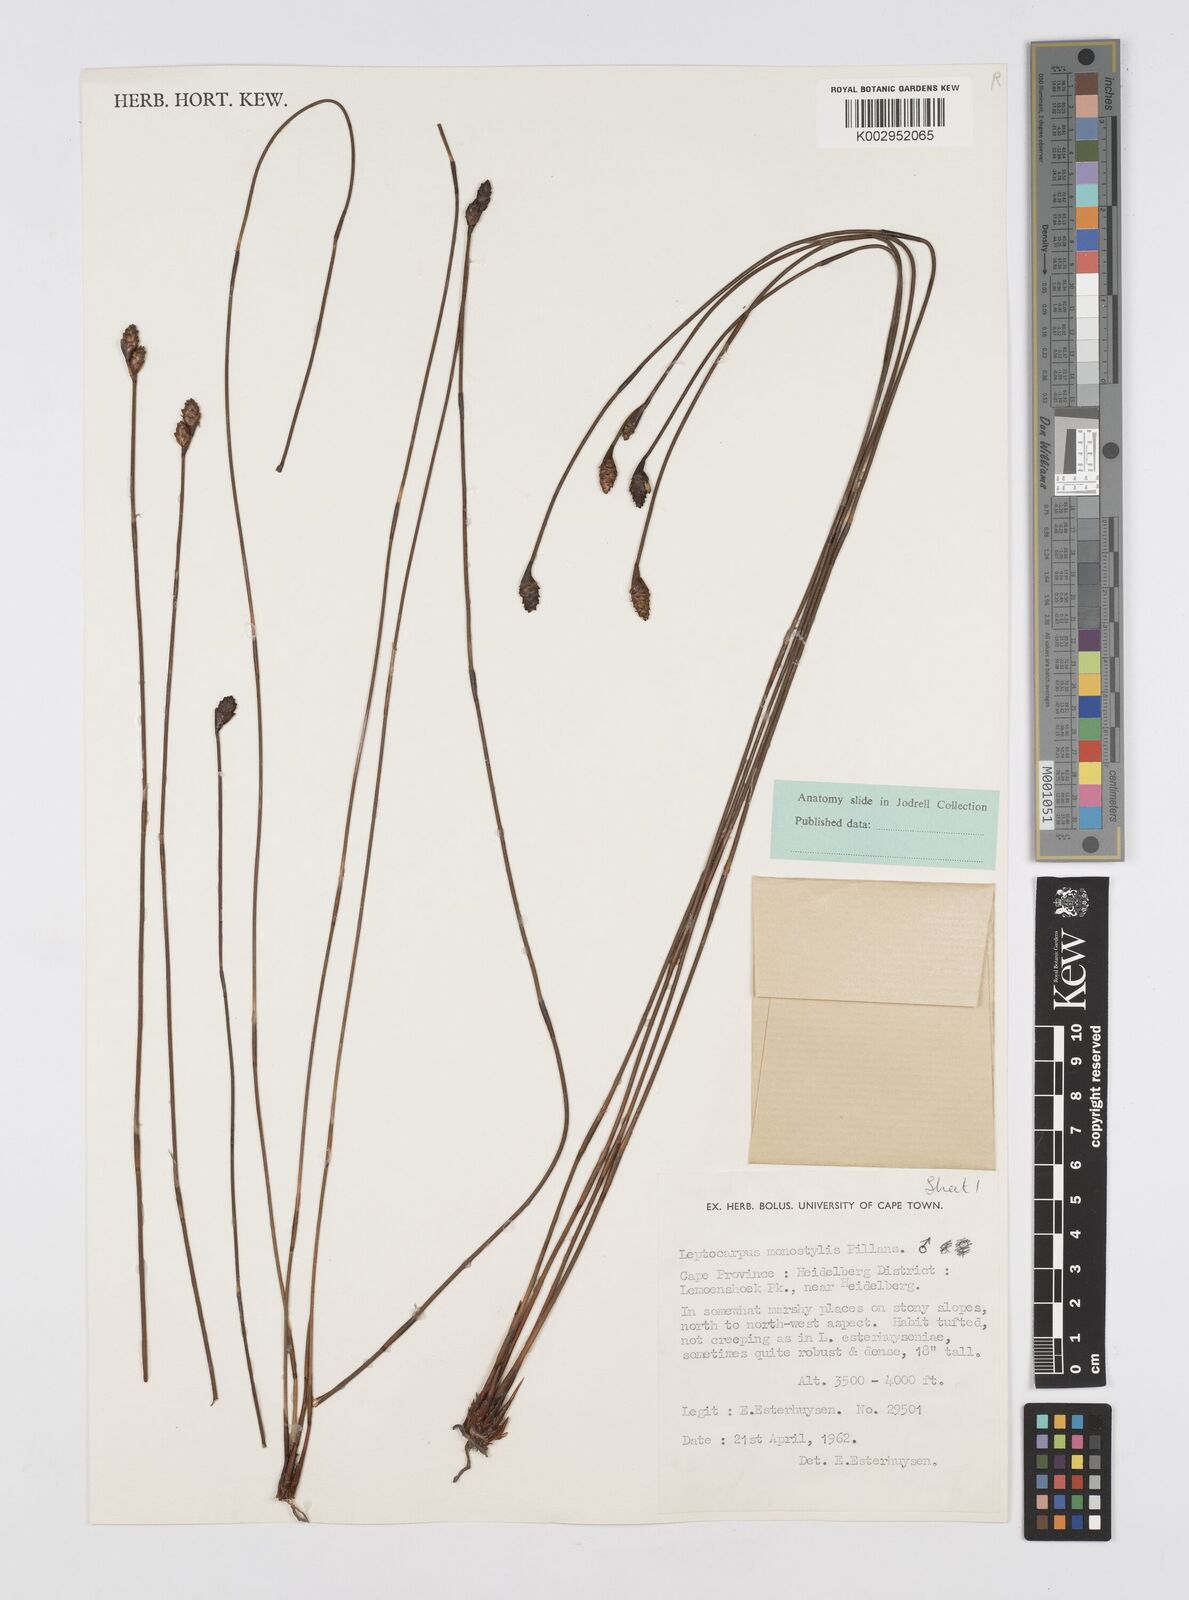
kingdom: Plantae
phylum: Tracheophyta
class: Liliopsida
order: Poales
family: Restionaceae
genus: Restio
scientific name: Restio monostylis
